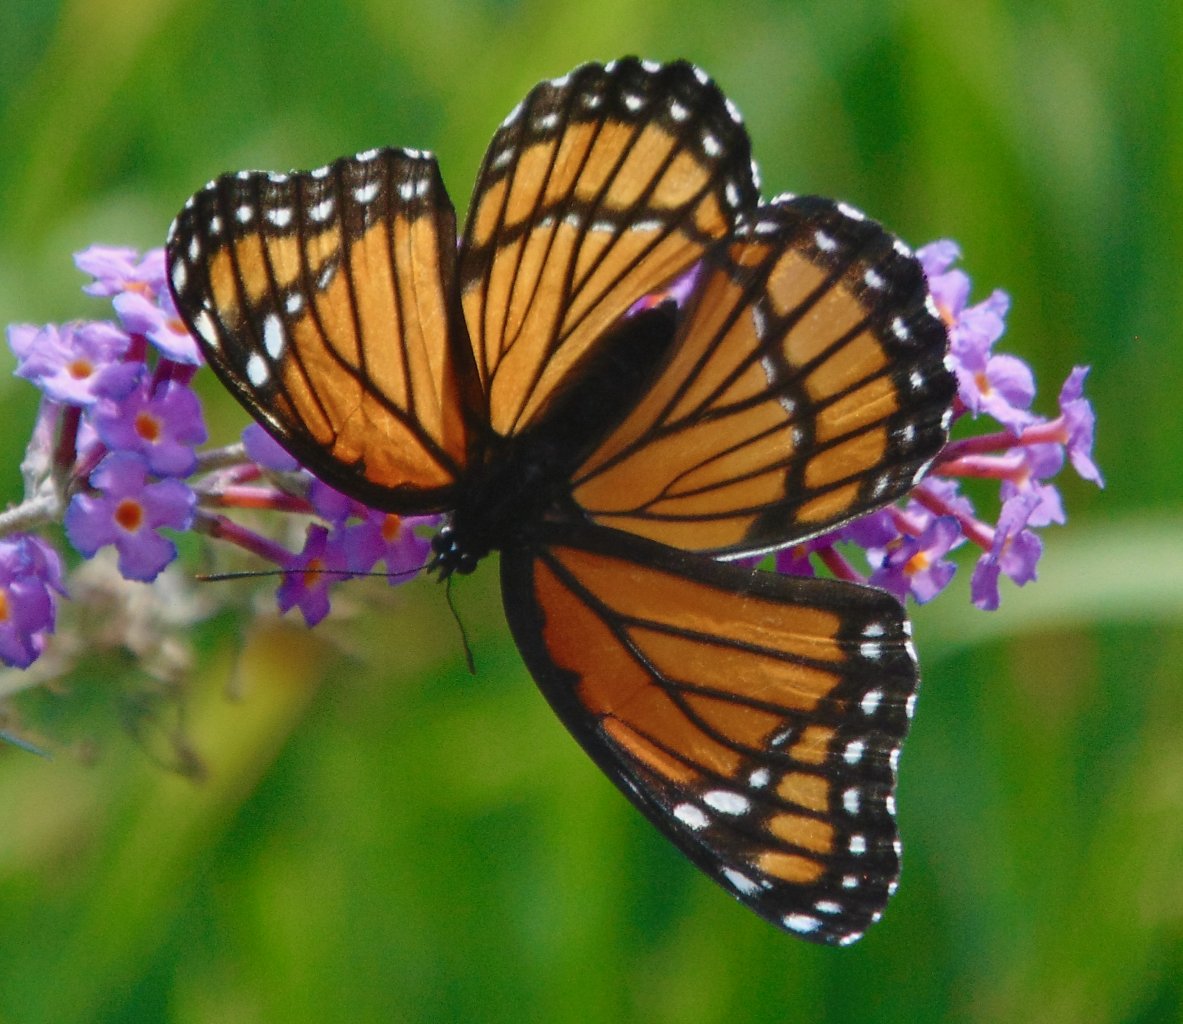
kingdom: Animalia
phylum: Arthropoda
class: Insecta
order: Lepidoptera
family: Nymphalidae
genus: Limenitis
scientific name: Limenitis archippus
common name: Viceroy
